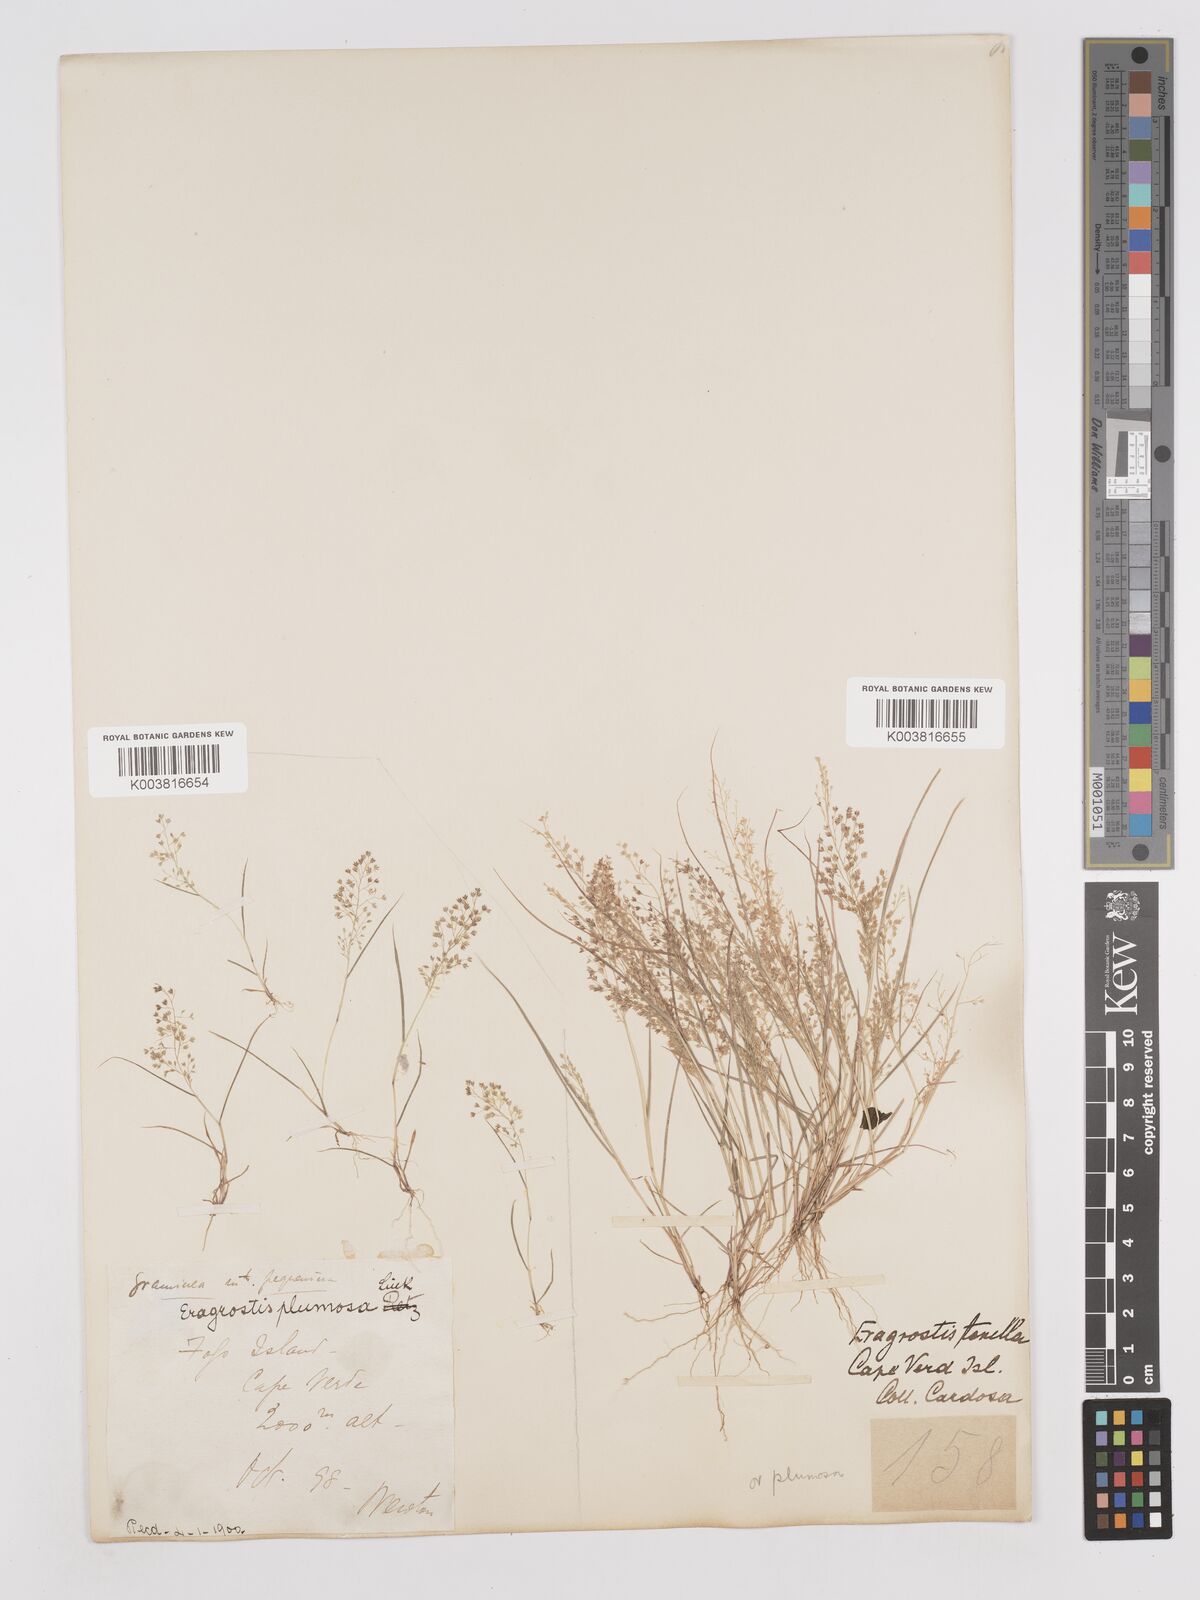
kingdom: Plantae
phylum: Tracheophyta
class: Liliopsida
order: Poales
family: Poaceae
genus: Eragrostis
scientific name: Eragrostis tenella
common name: Japanese lovegrass
